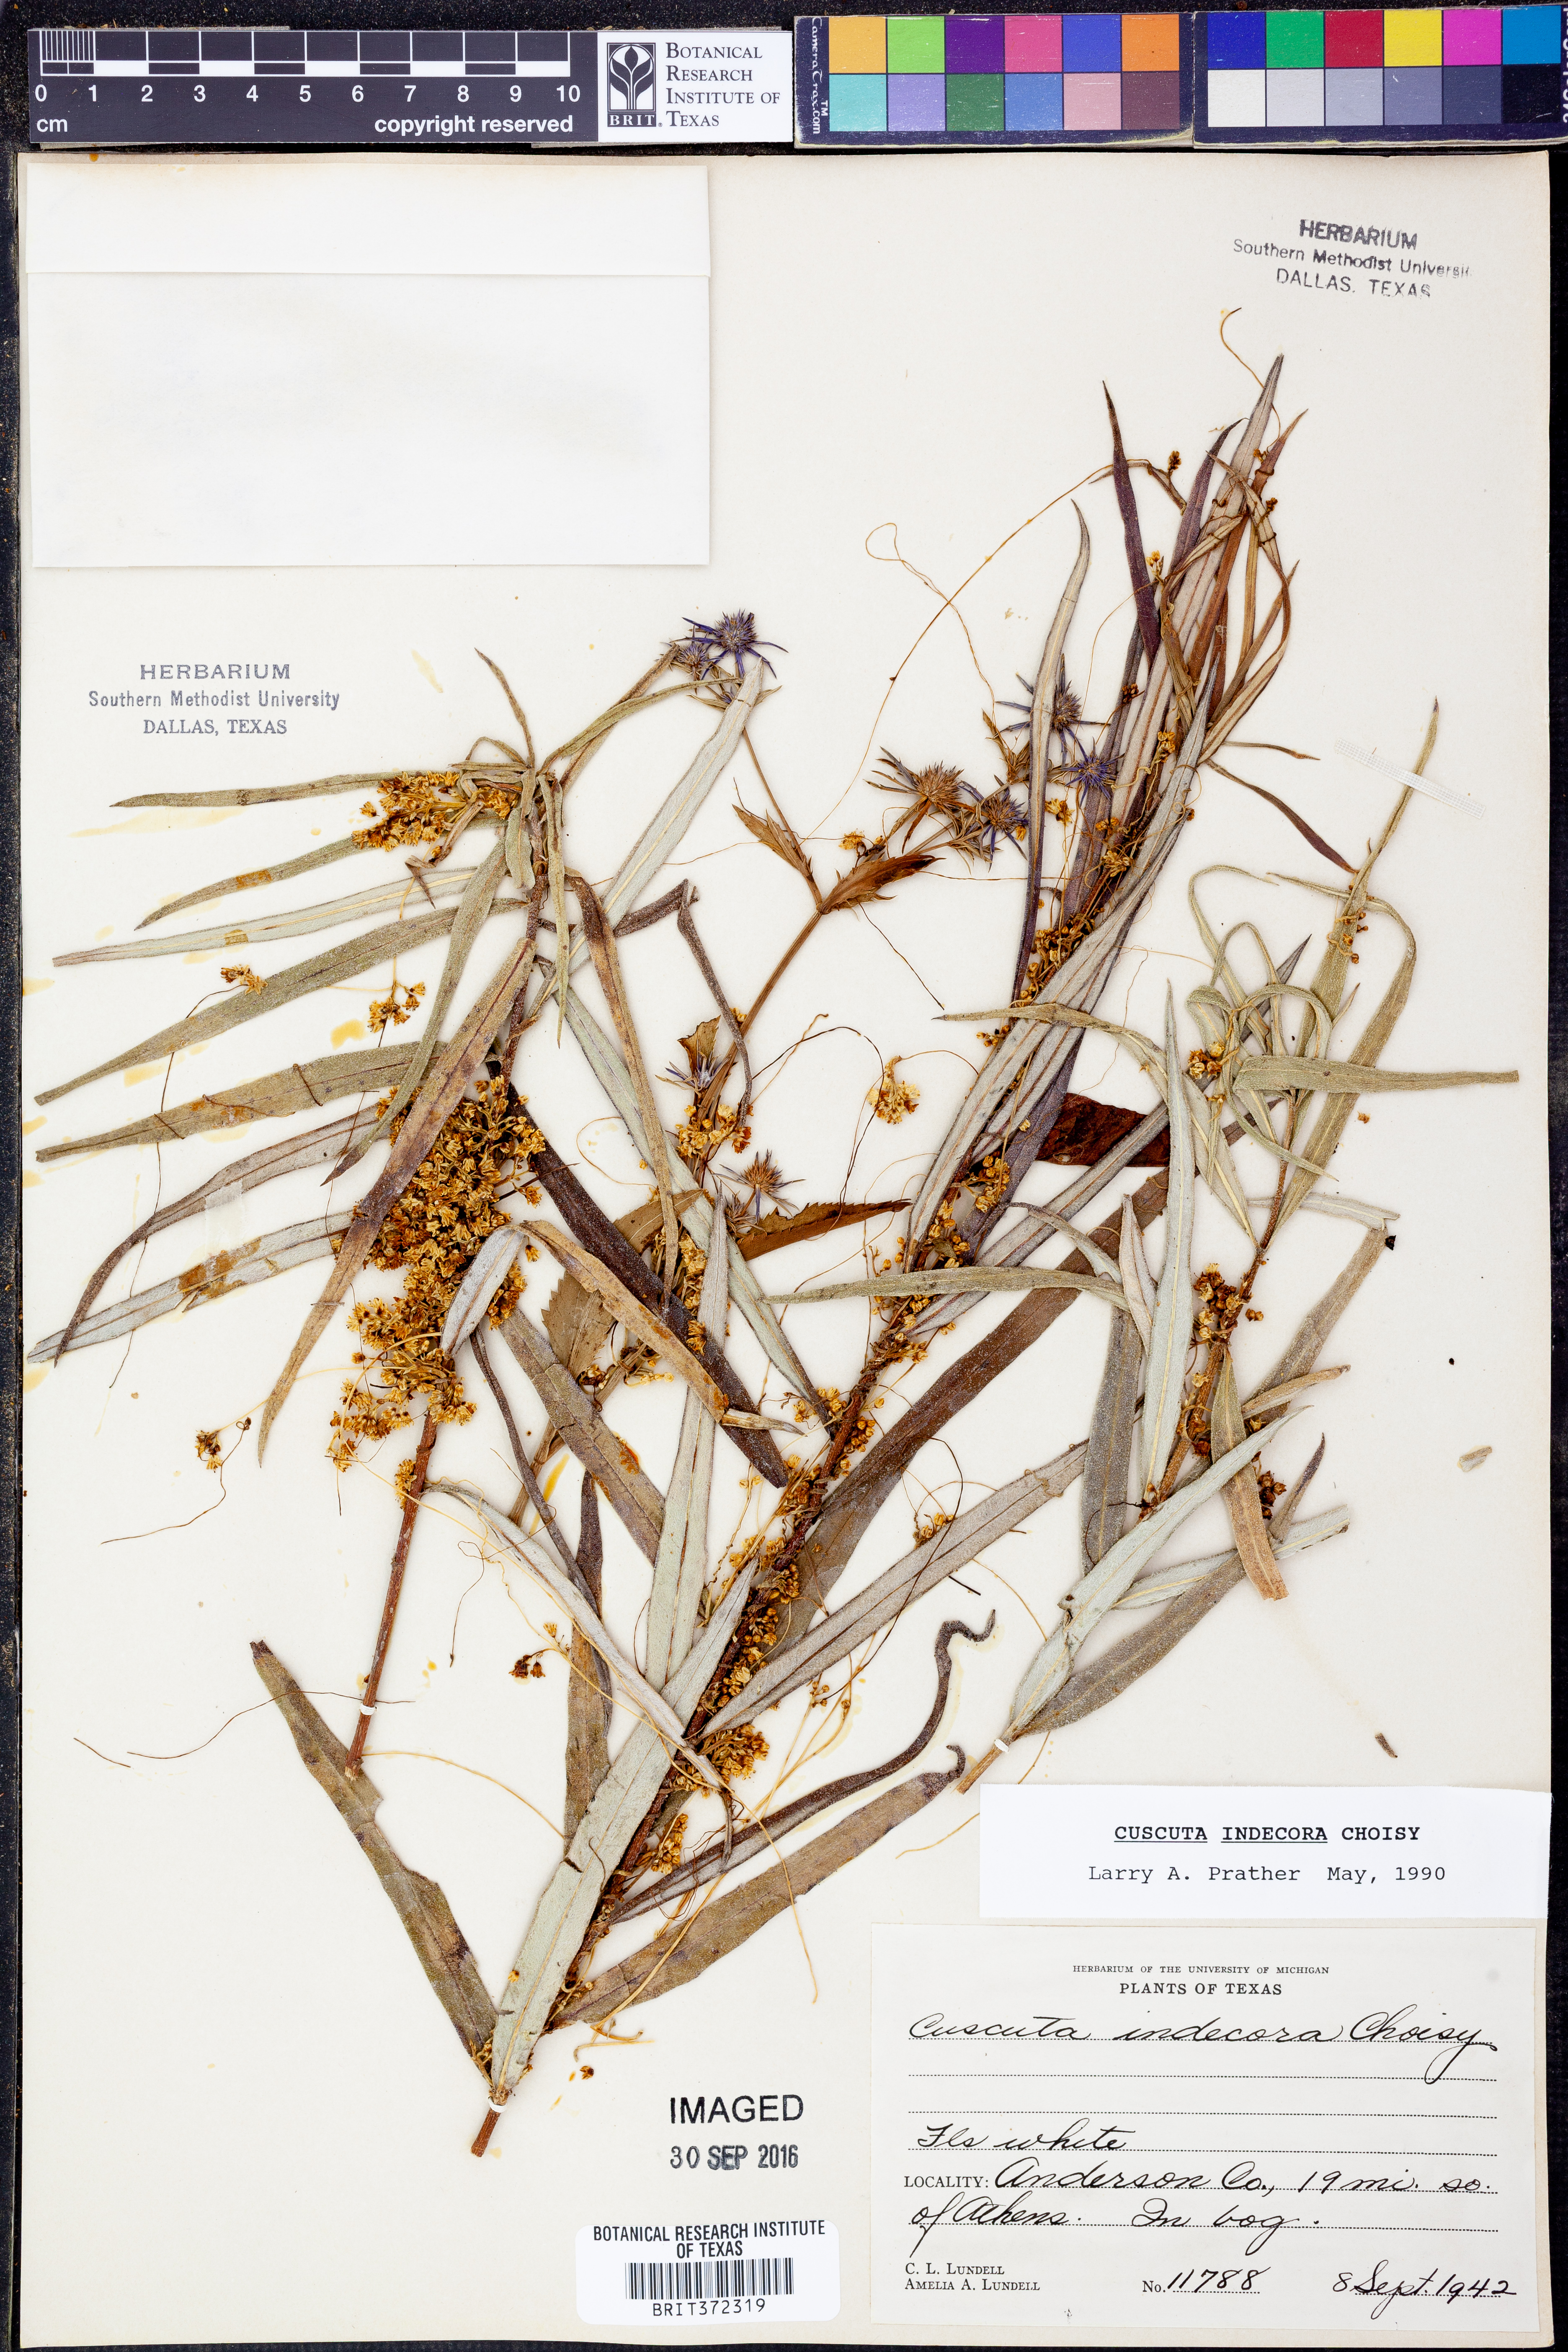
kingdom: Plantae
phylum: Tracheophyta
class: Magnoliopsida
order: Solanales
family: Convolvulaceae
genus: Cuscuta
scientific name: Cuscuta indecora
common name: Large-seed dodder
